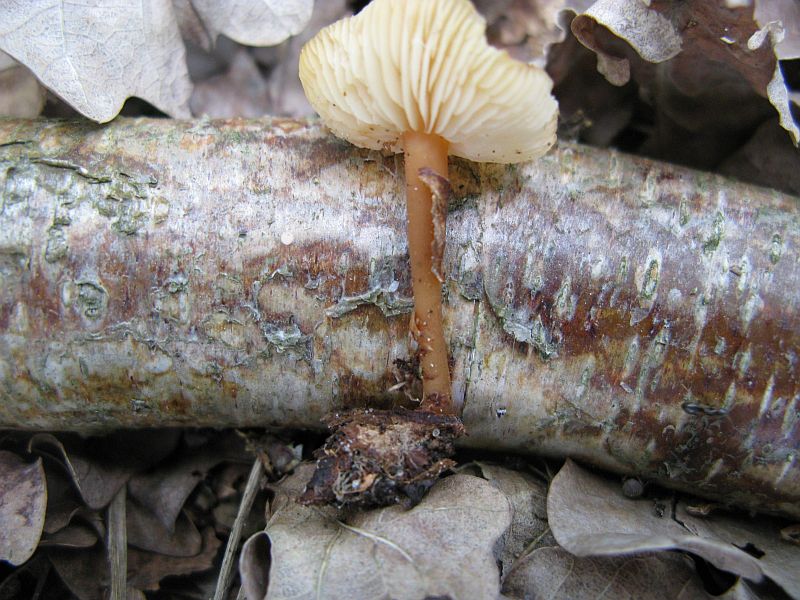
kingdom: Fungi
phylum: Basidiomycota
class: Agaricomycetes
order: Agaricales
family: Omphalotaceae
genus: Gymnopus
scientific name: Gymnopus aquosus
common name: bleg fladhat
